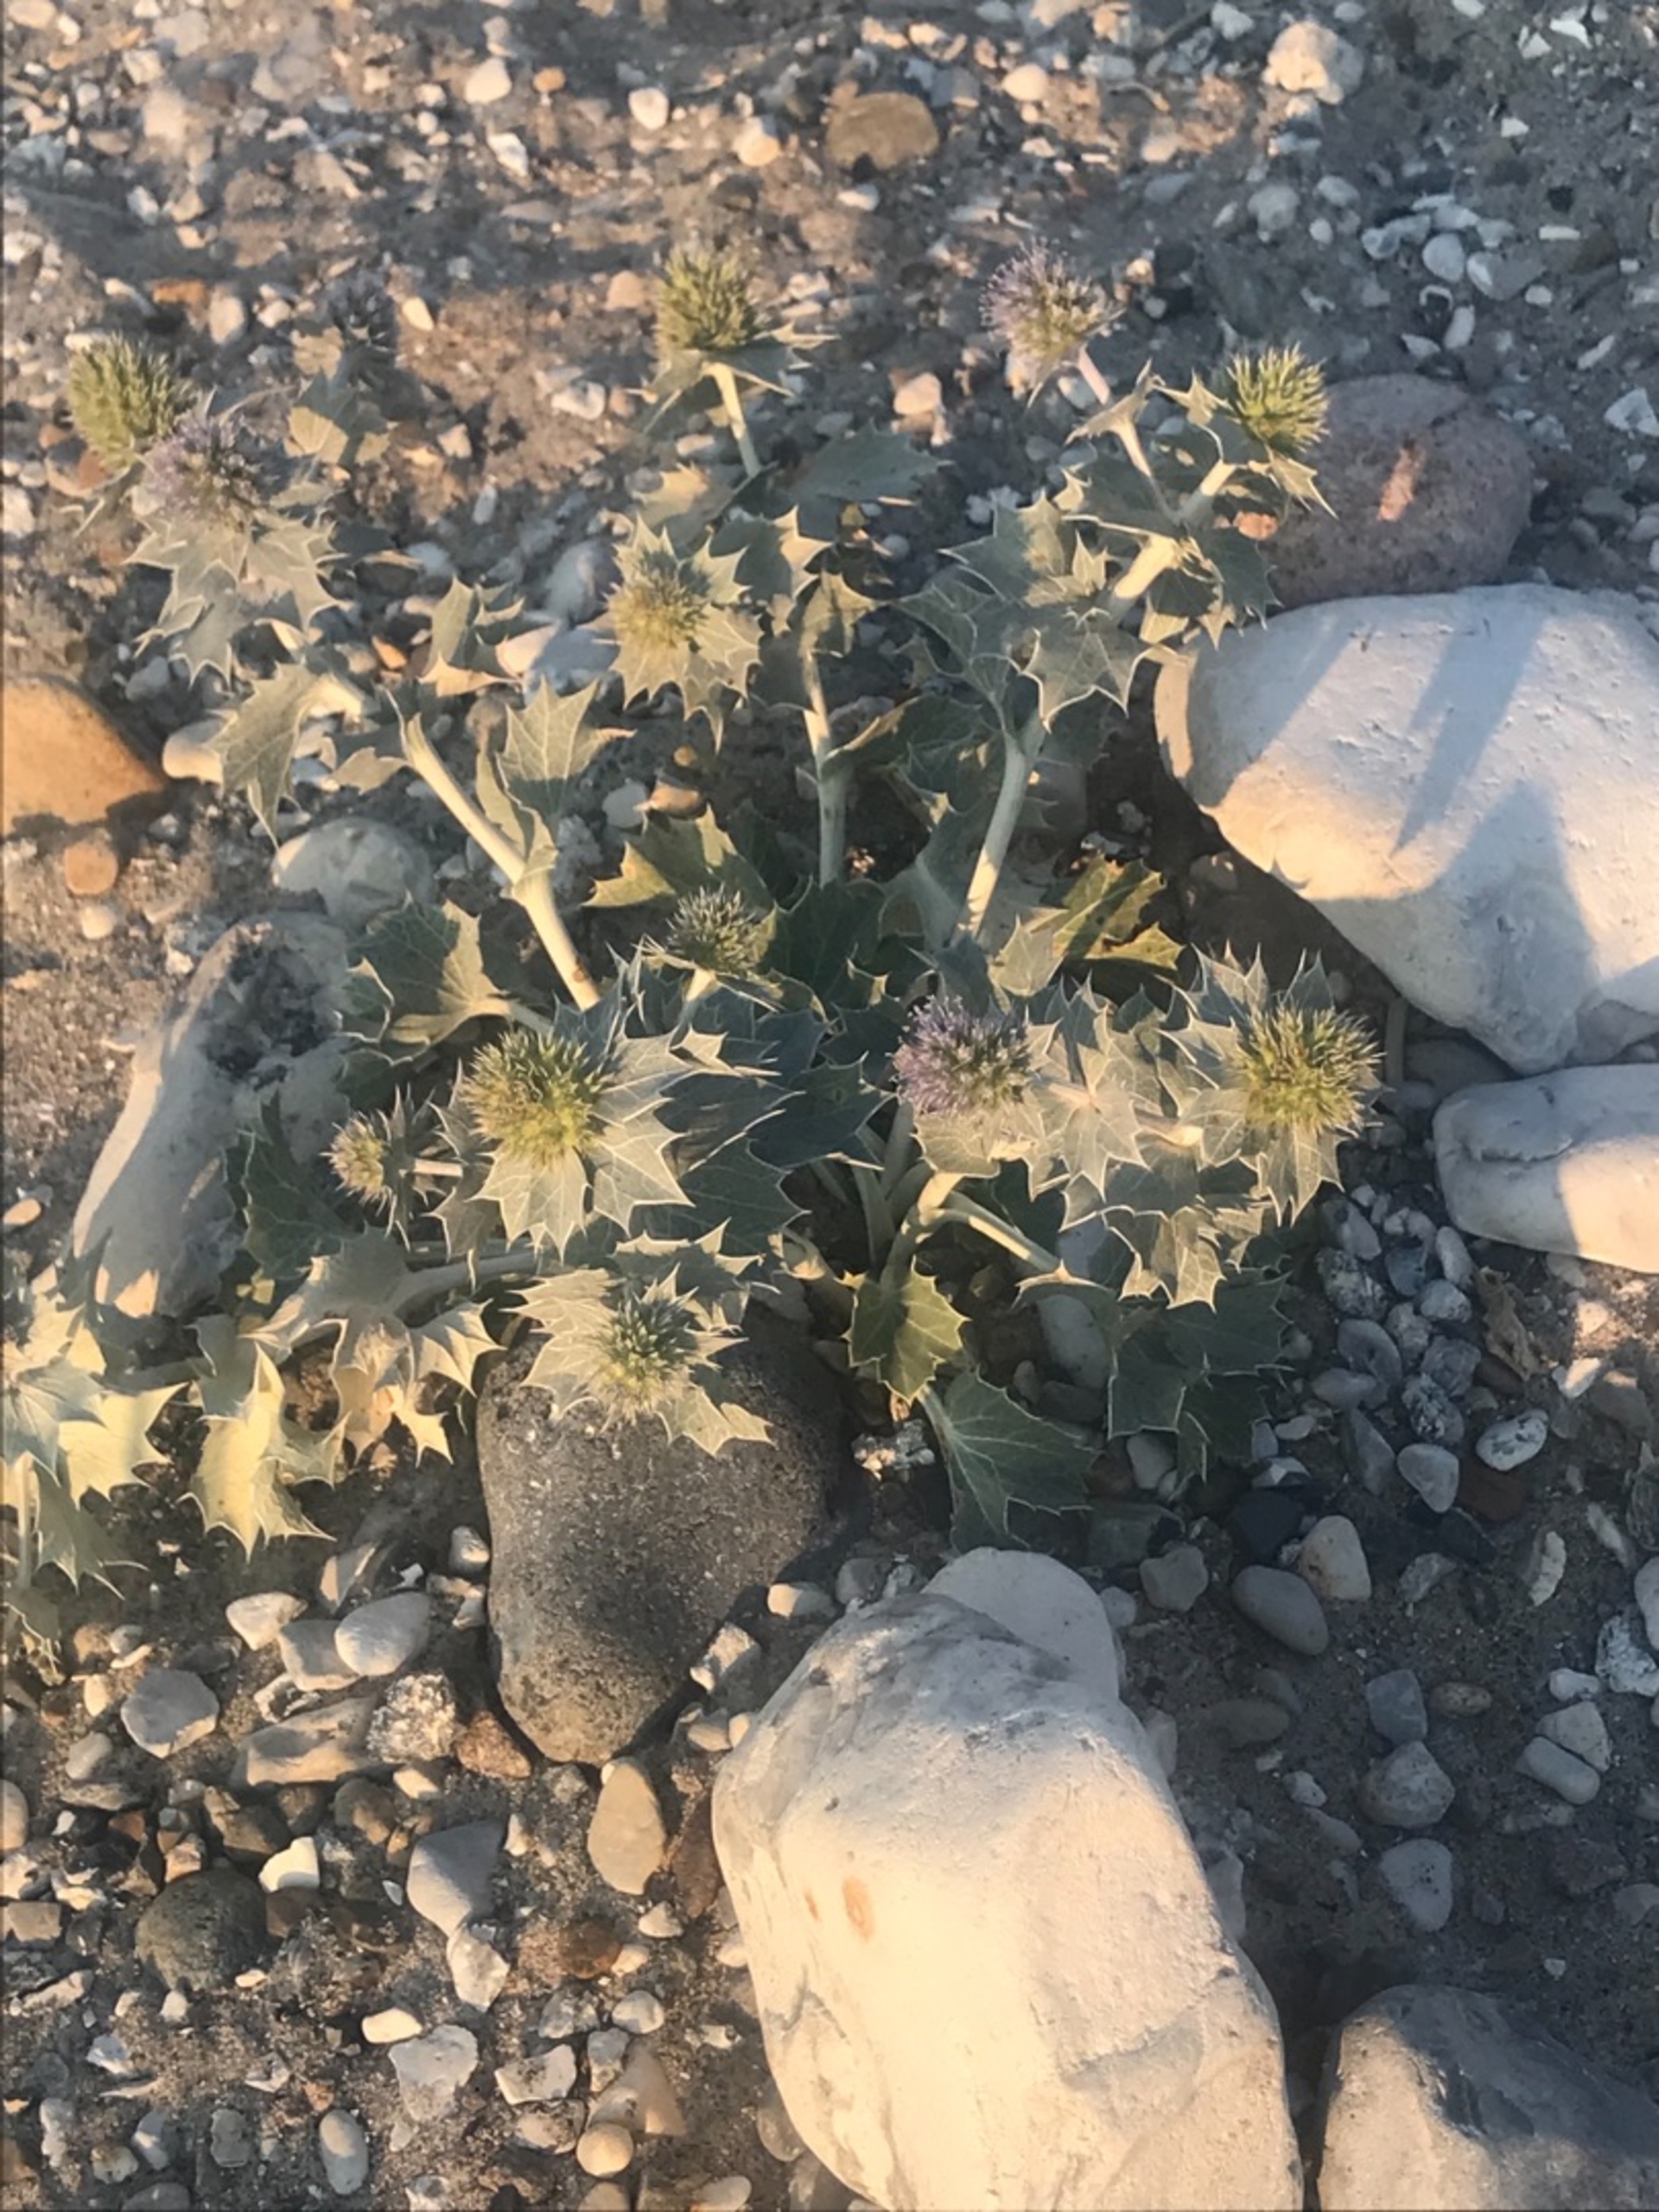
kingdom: Plantae
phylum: Tracheophyta
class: Magnoliopsida
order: Apiales
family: Apiaceae
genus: Eryngium
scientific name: Eryngium maritimum
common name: Strand-mandstro
